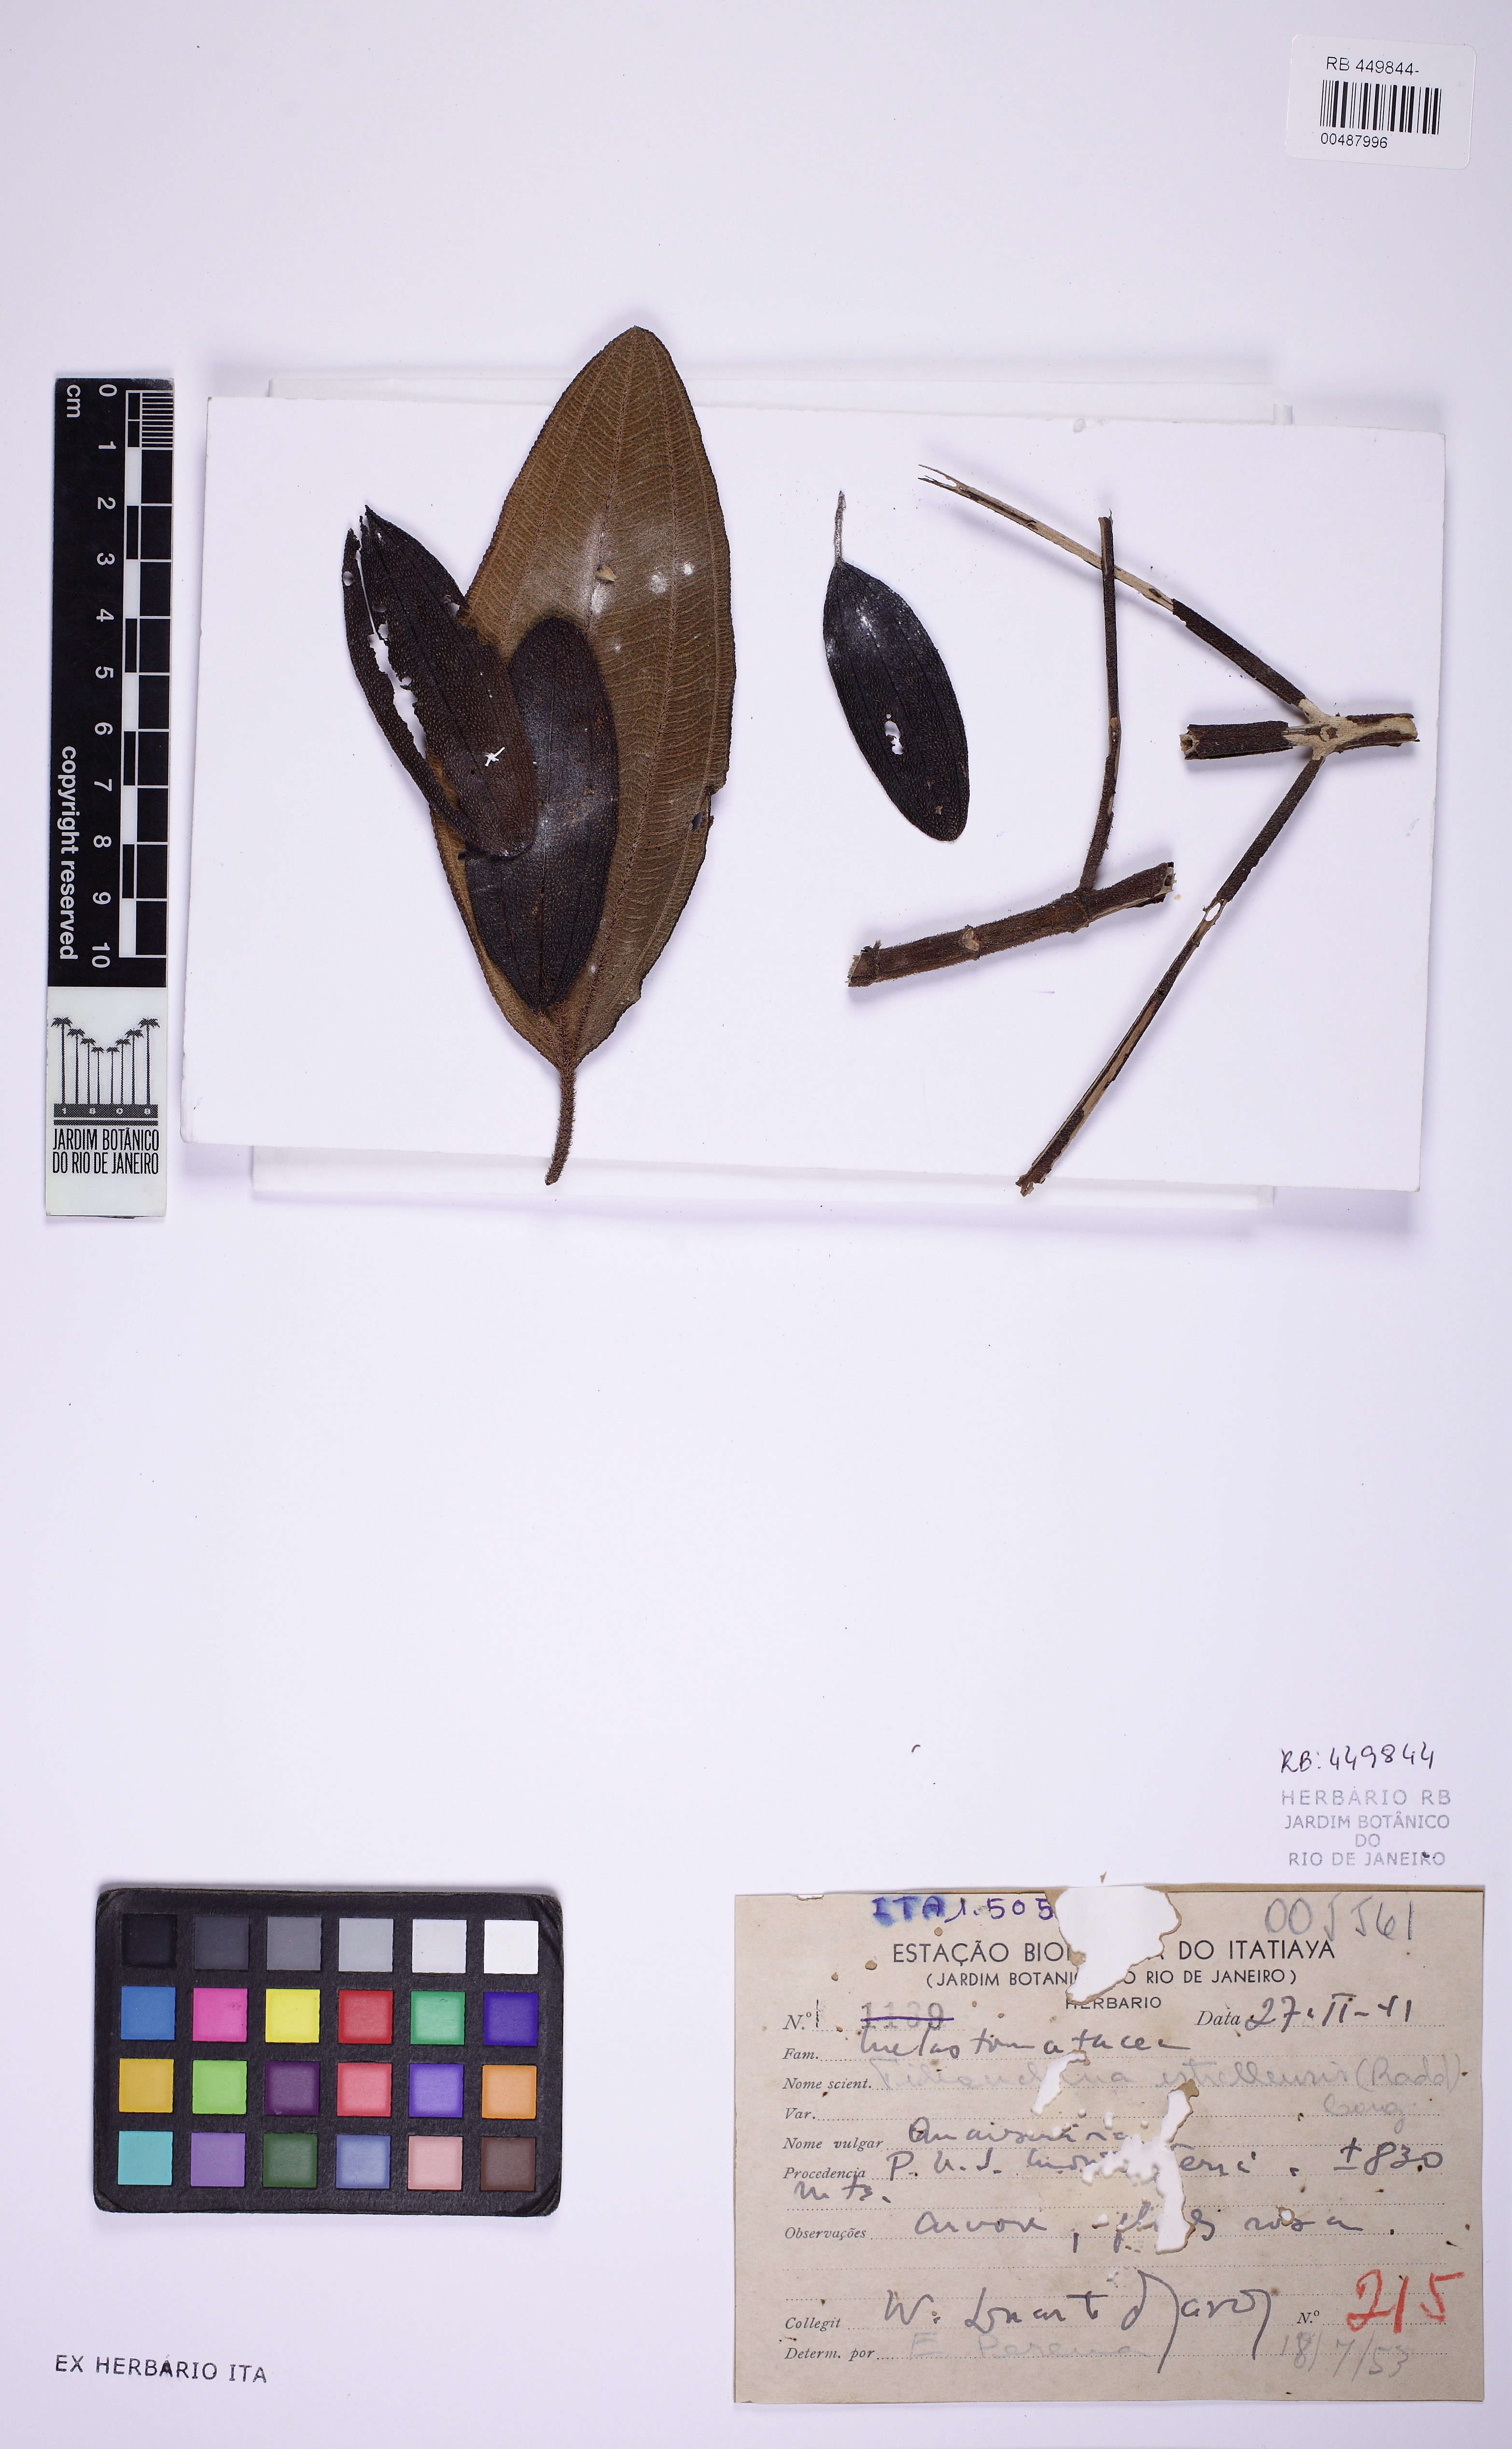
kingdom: Plantae
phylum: Tracheophyta
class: Magnoliopsida
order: Myrtales
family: Melastomataceae
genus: Pleroma
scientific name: Pleroma estrellense
